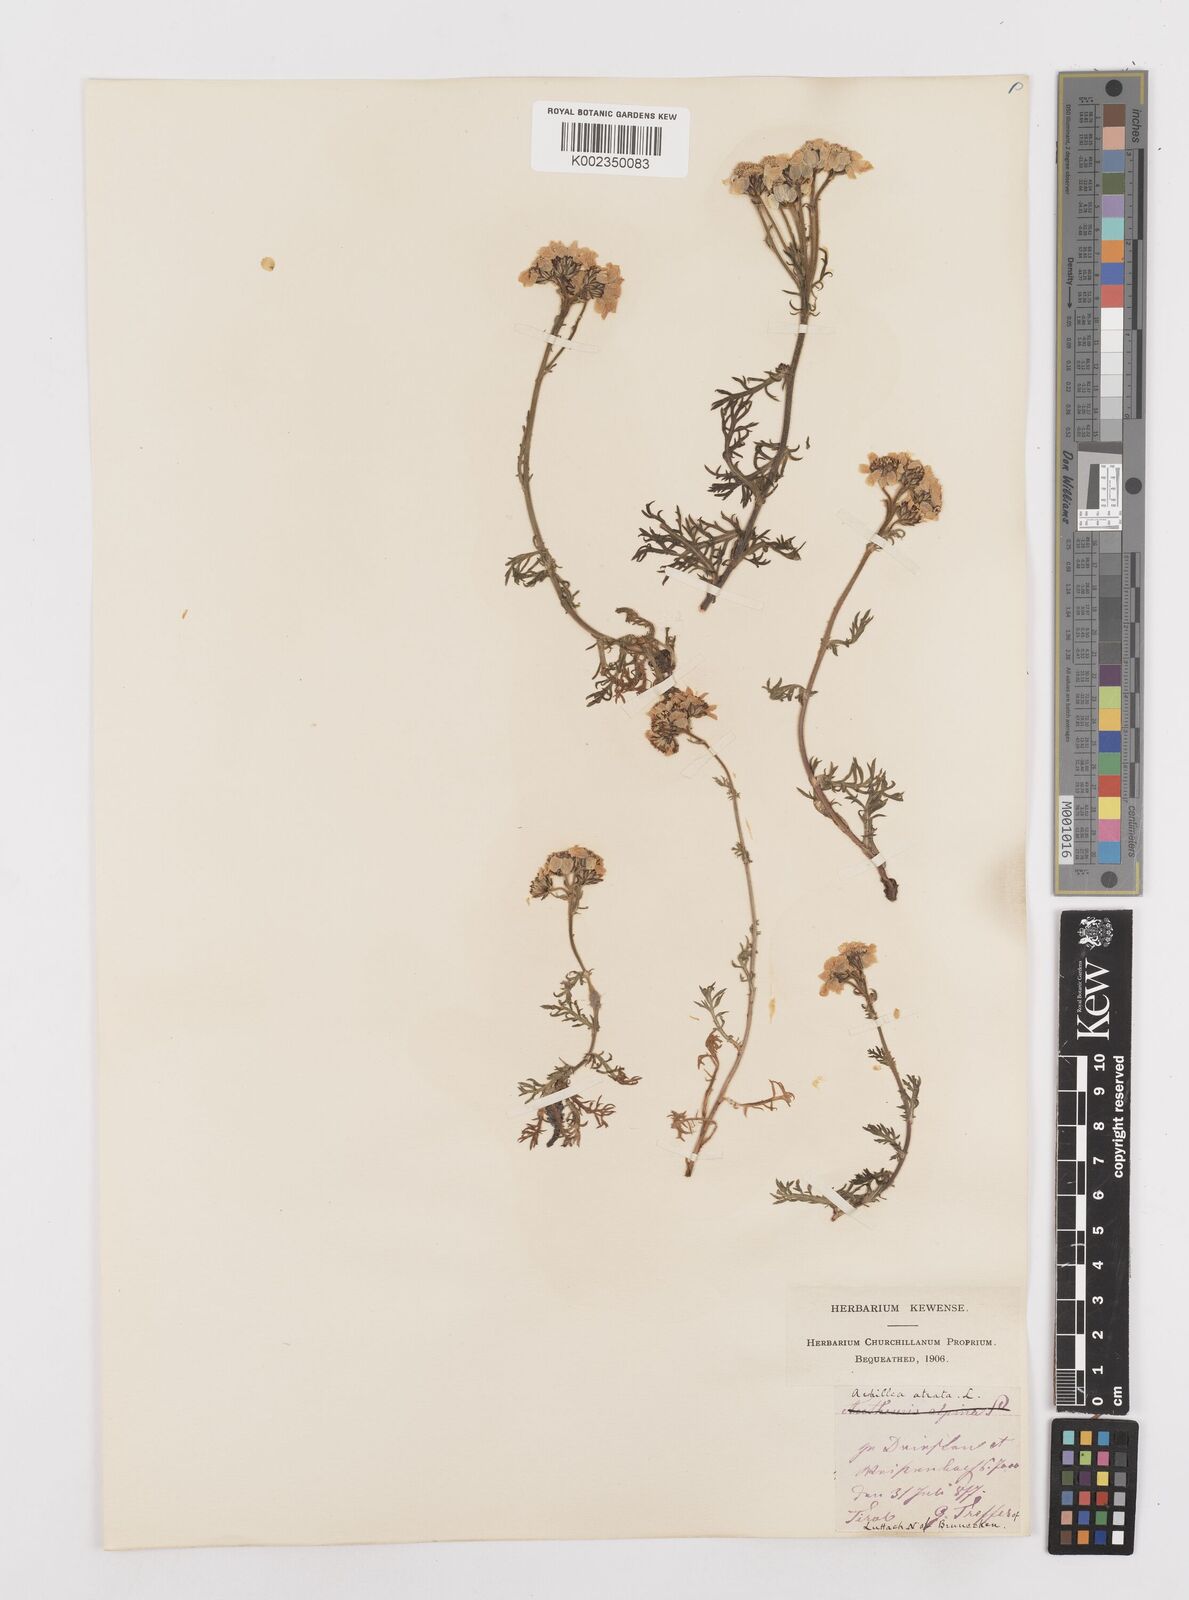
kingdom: Plantae
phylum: Tracheophyta
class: Magnoliopsida
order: Asterales
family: Asteraceae
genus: Achillea
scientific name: Achillea atrata
